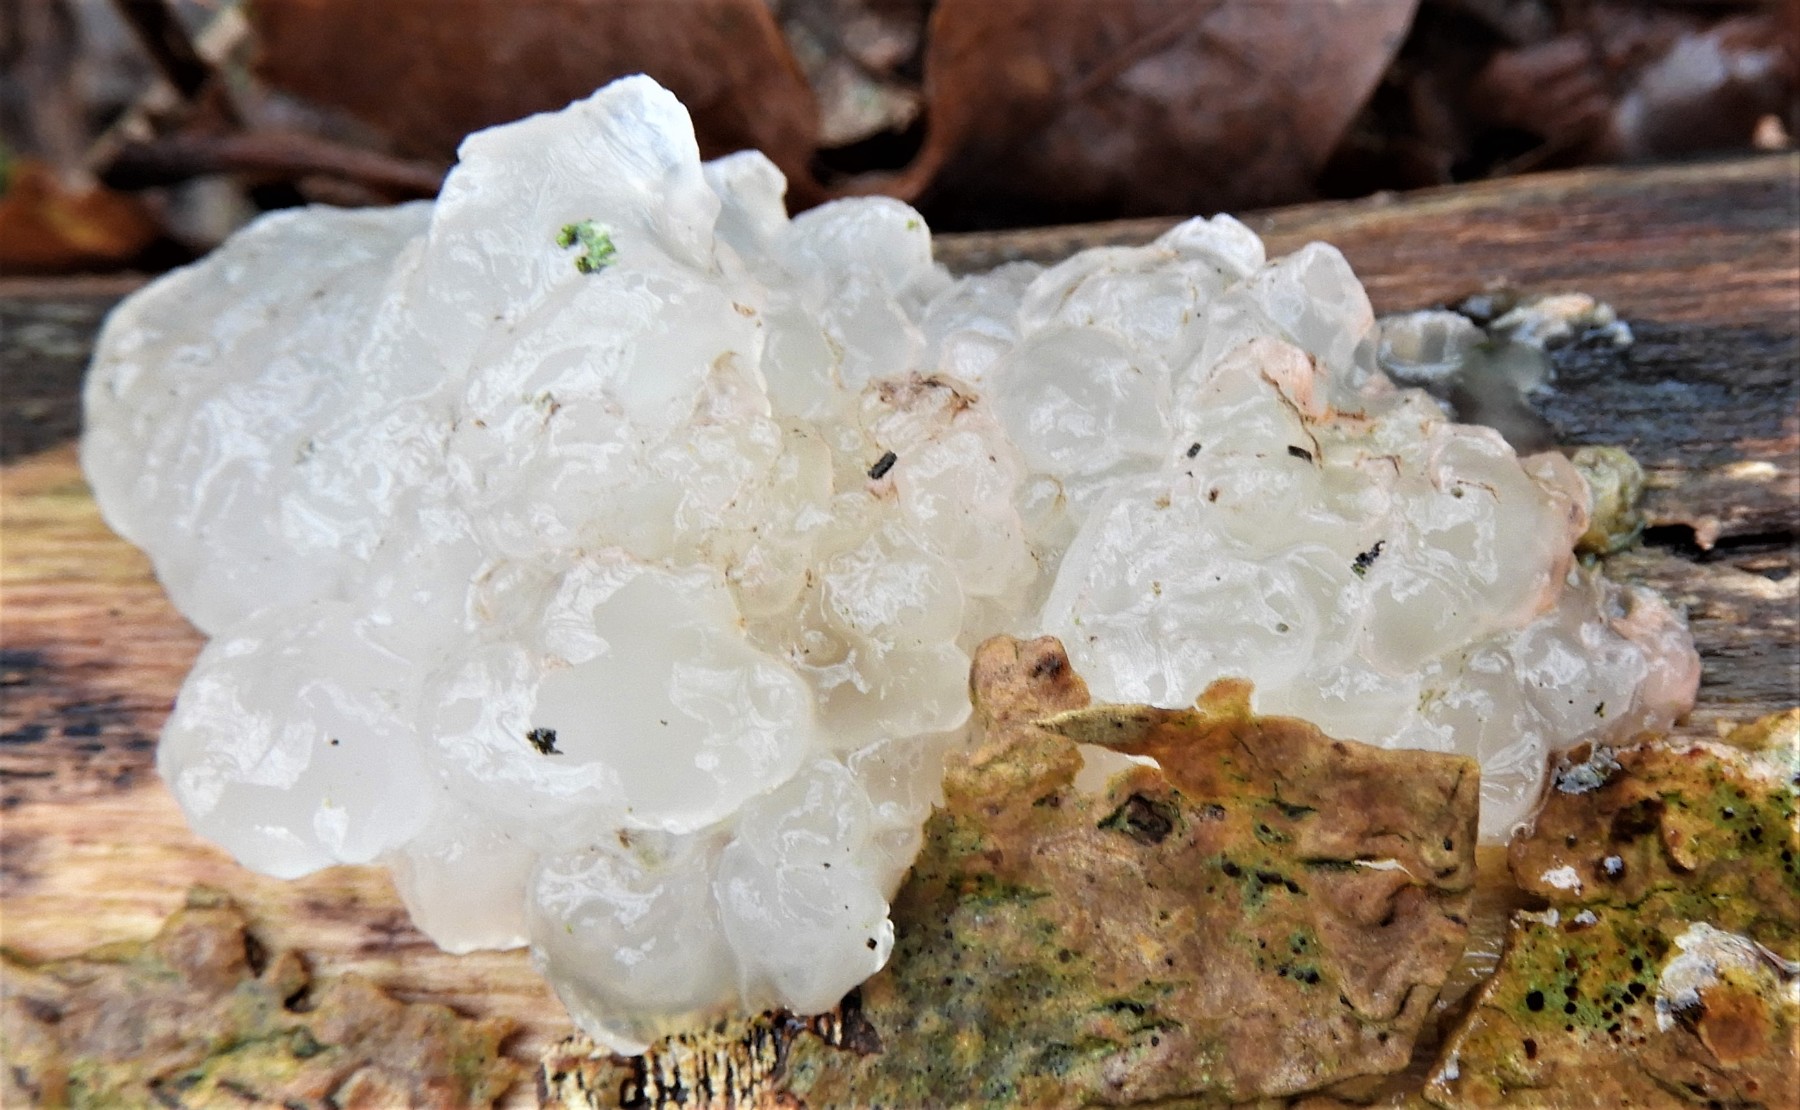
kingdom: Fungi
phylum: Basidiomycota
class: Agaricomycetes
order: Auriculariales
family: Hyaloriaceae
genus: Myxarium
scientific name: Myxarium nucleatum
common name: klar bævretop
